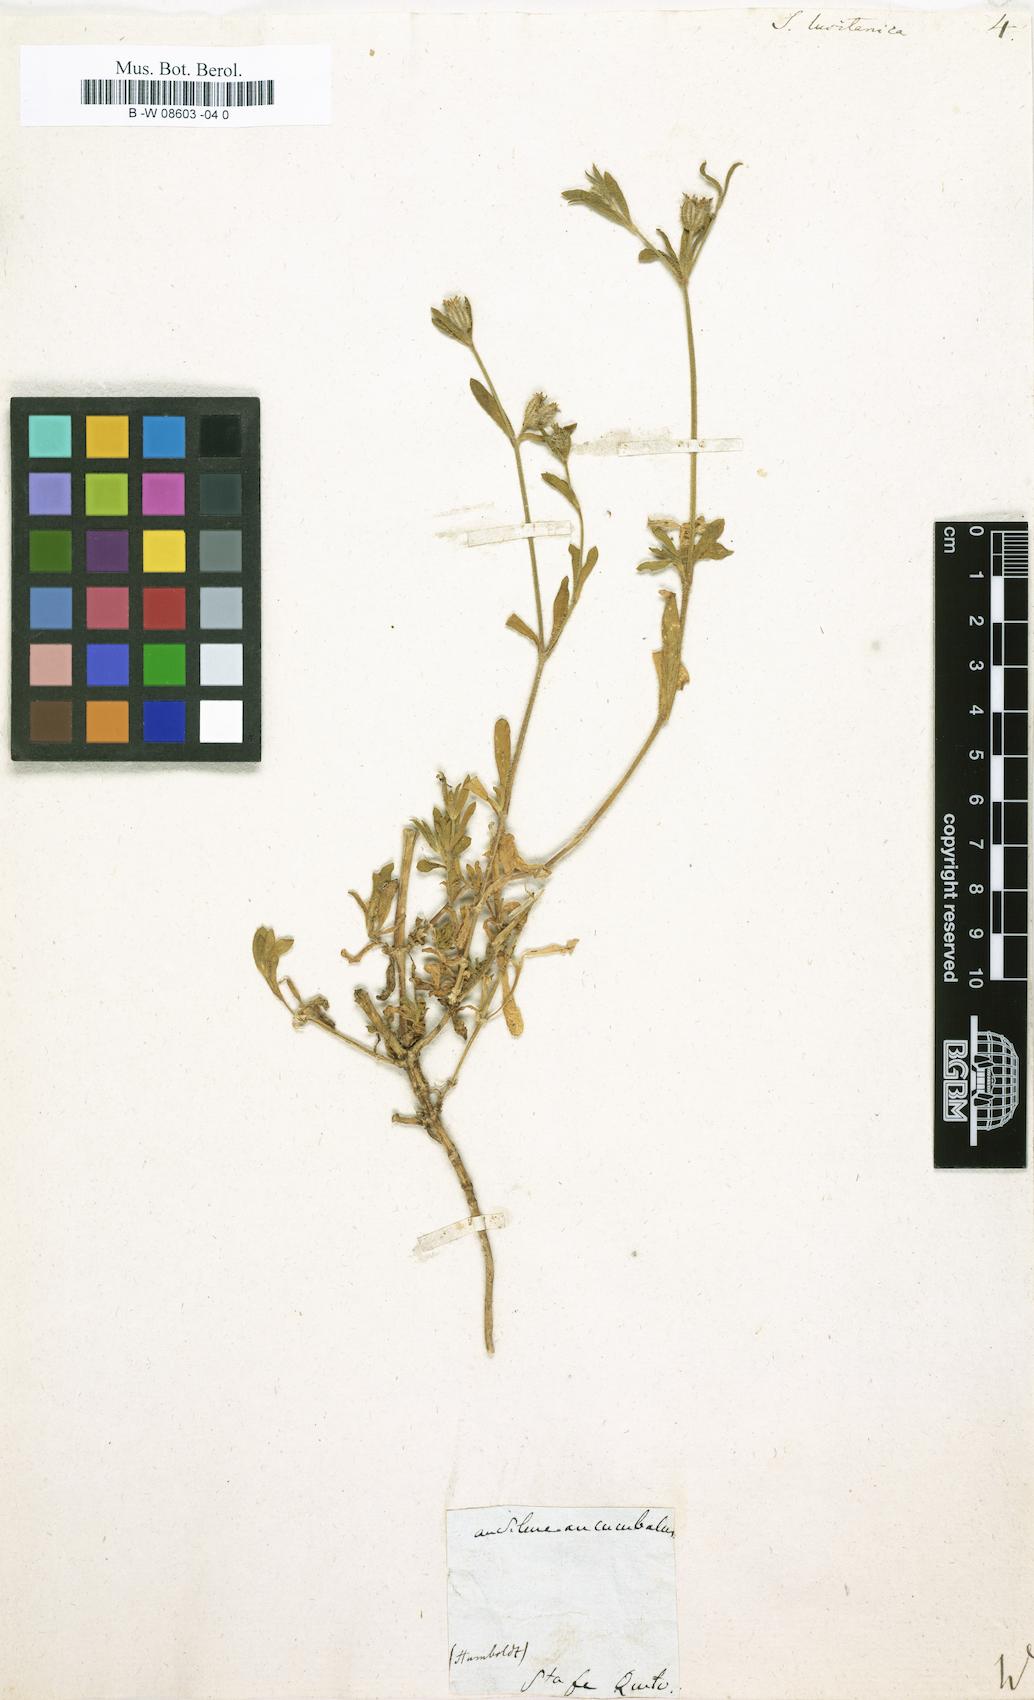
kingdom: Plantae
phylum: Tracheophyta
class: Magnoliopsida
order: Caryophyllales
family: Caryophyllaceae
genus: Silene
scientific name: Silene gallica
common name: Small-flowered catchfly
